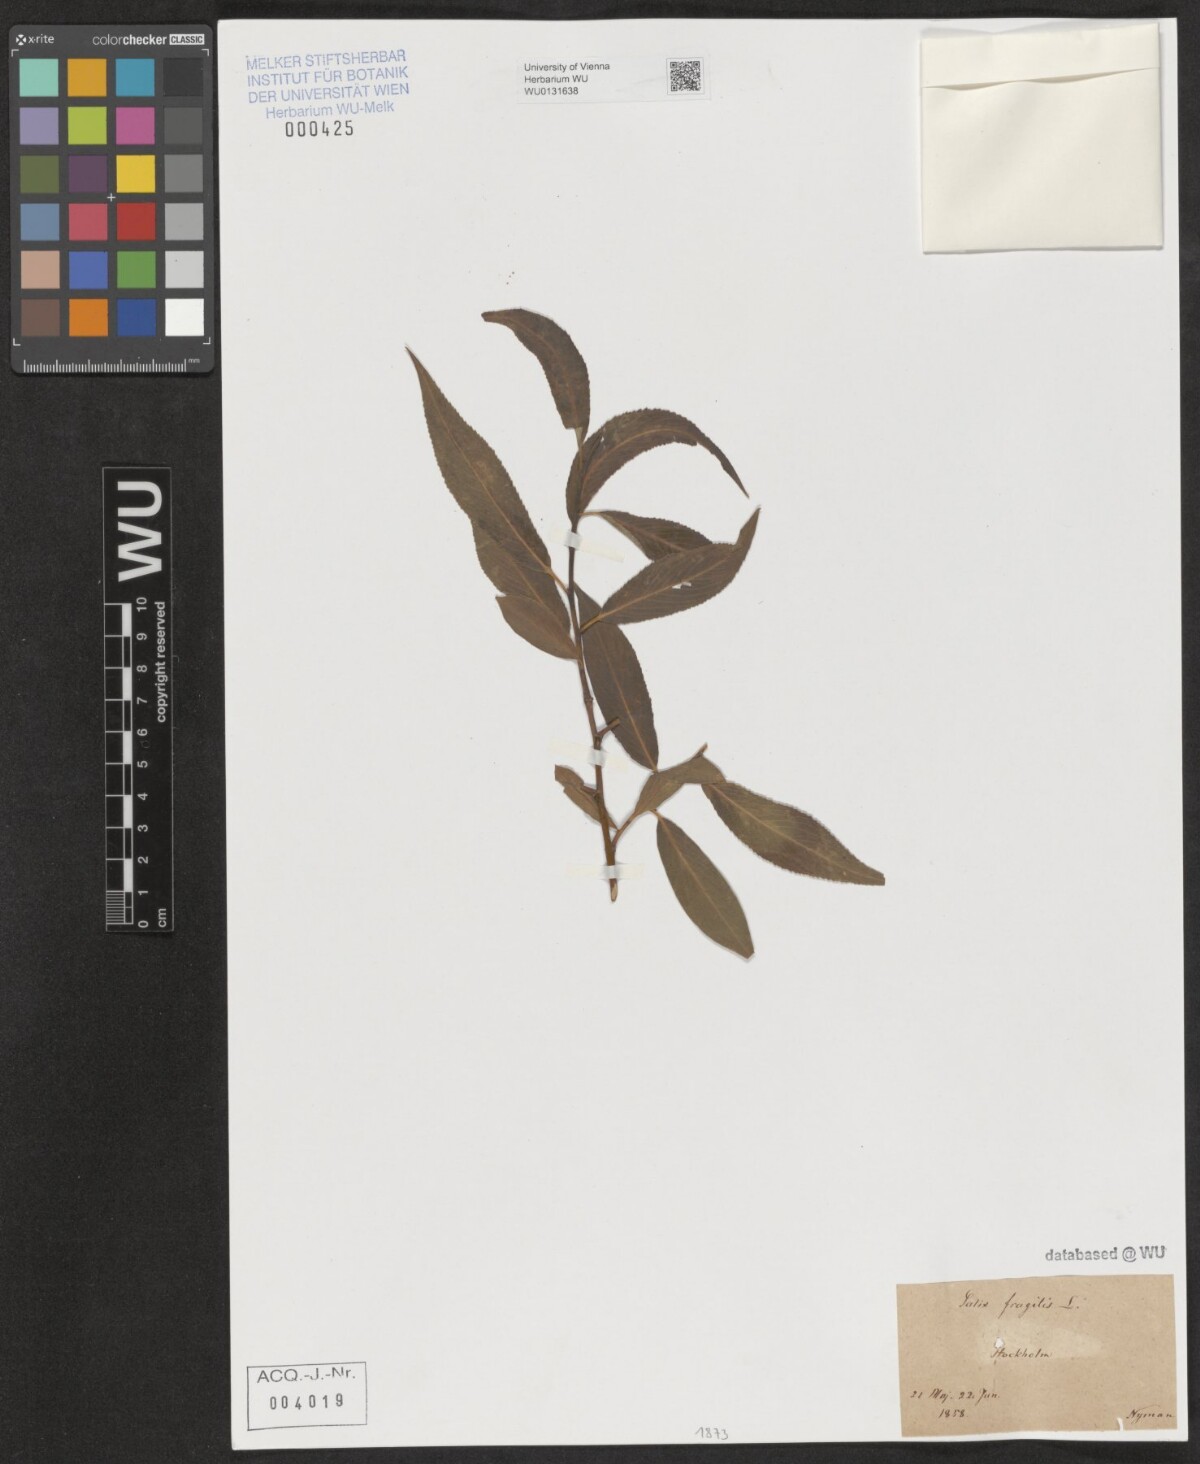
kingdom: Plantae
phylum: Tracheophyta
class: Magnoliopsida
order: Malpighiales
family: Salicaceae
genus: Salix
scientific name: Salix fragilis
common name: Crack willow
